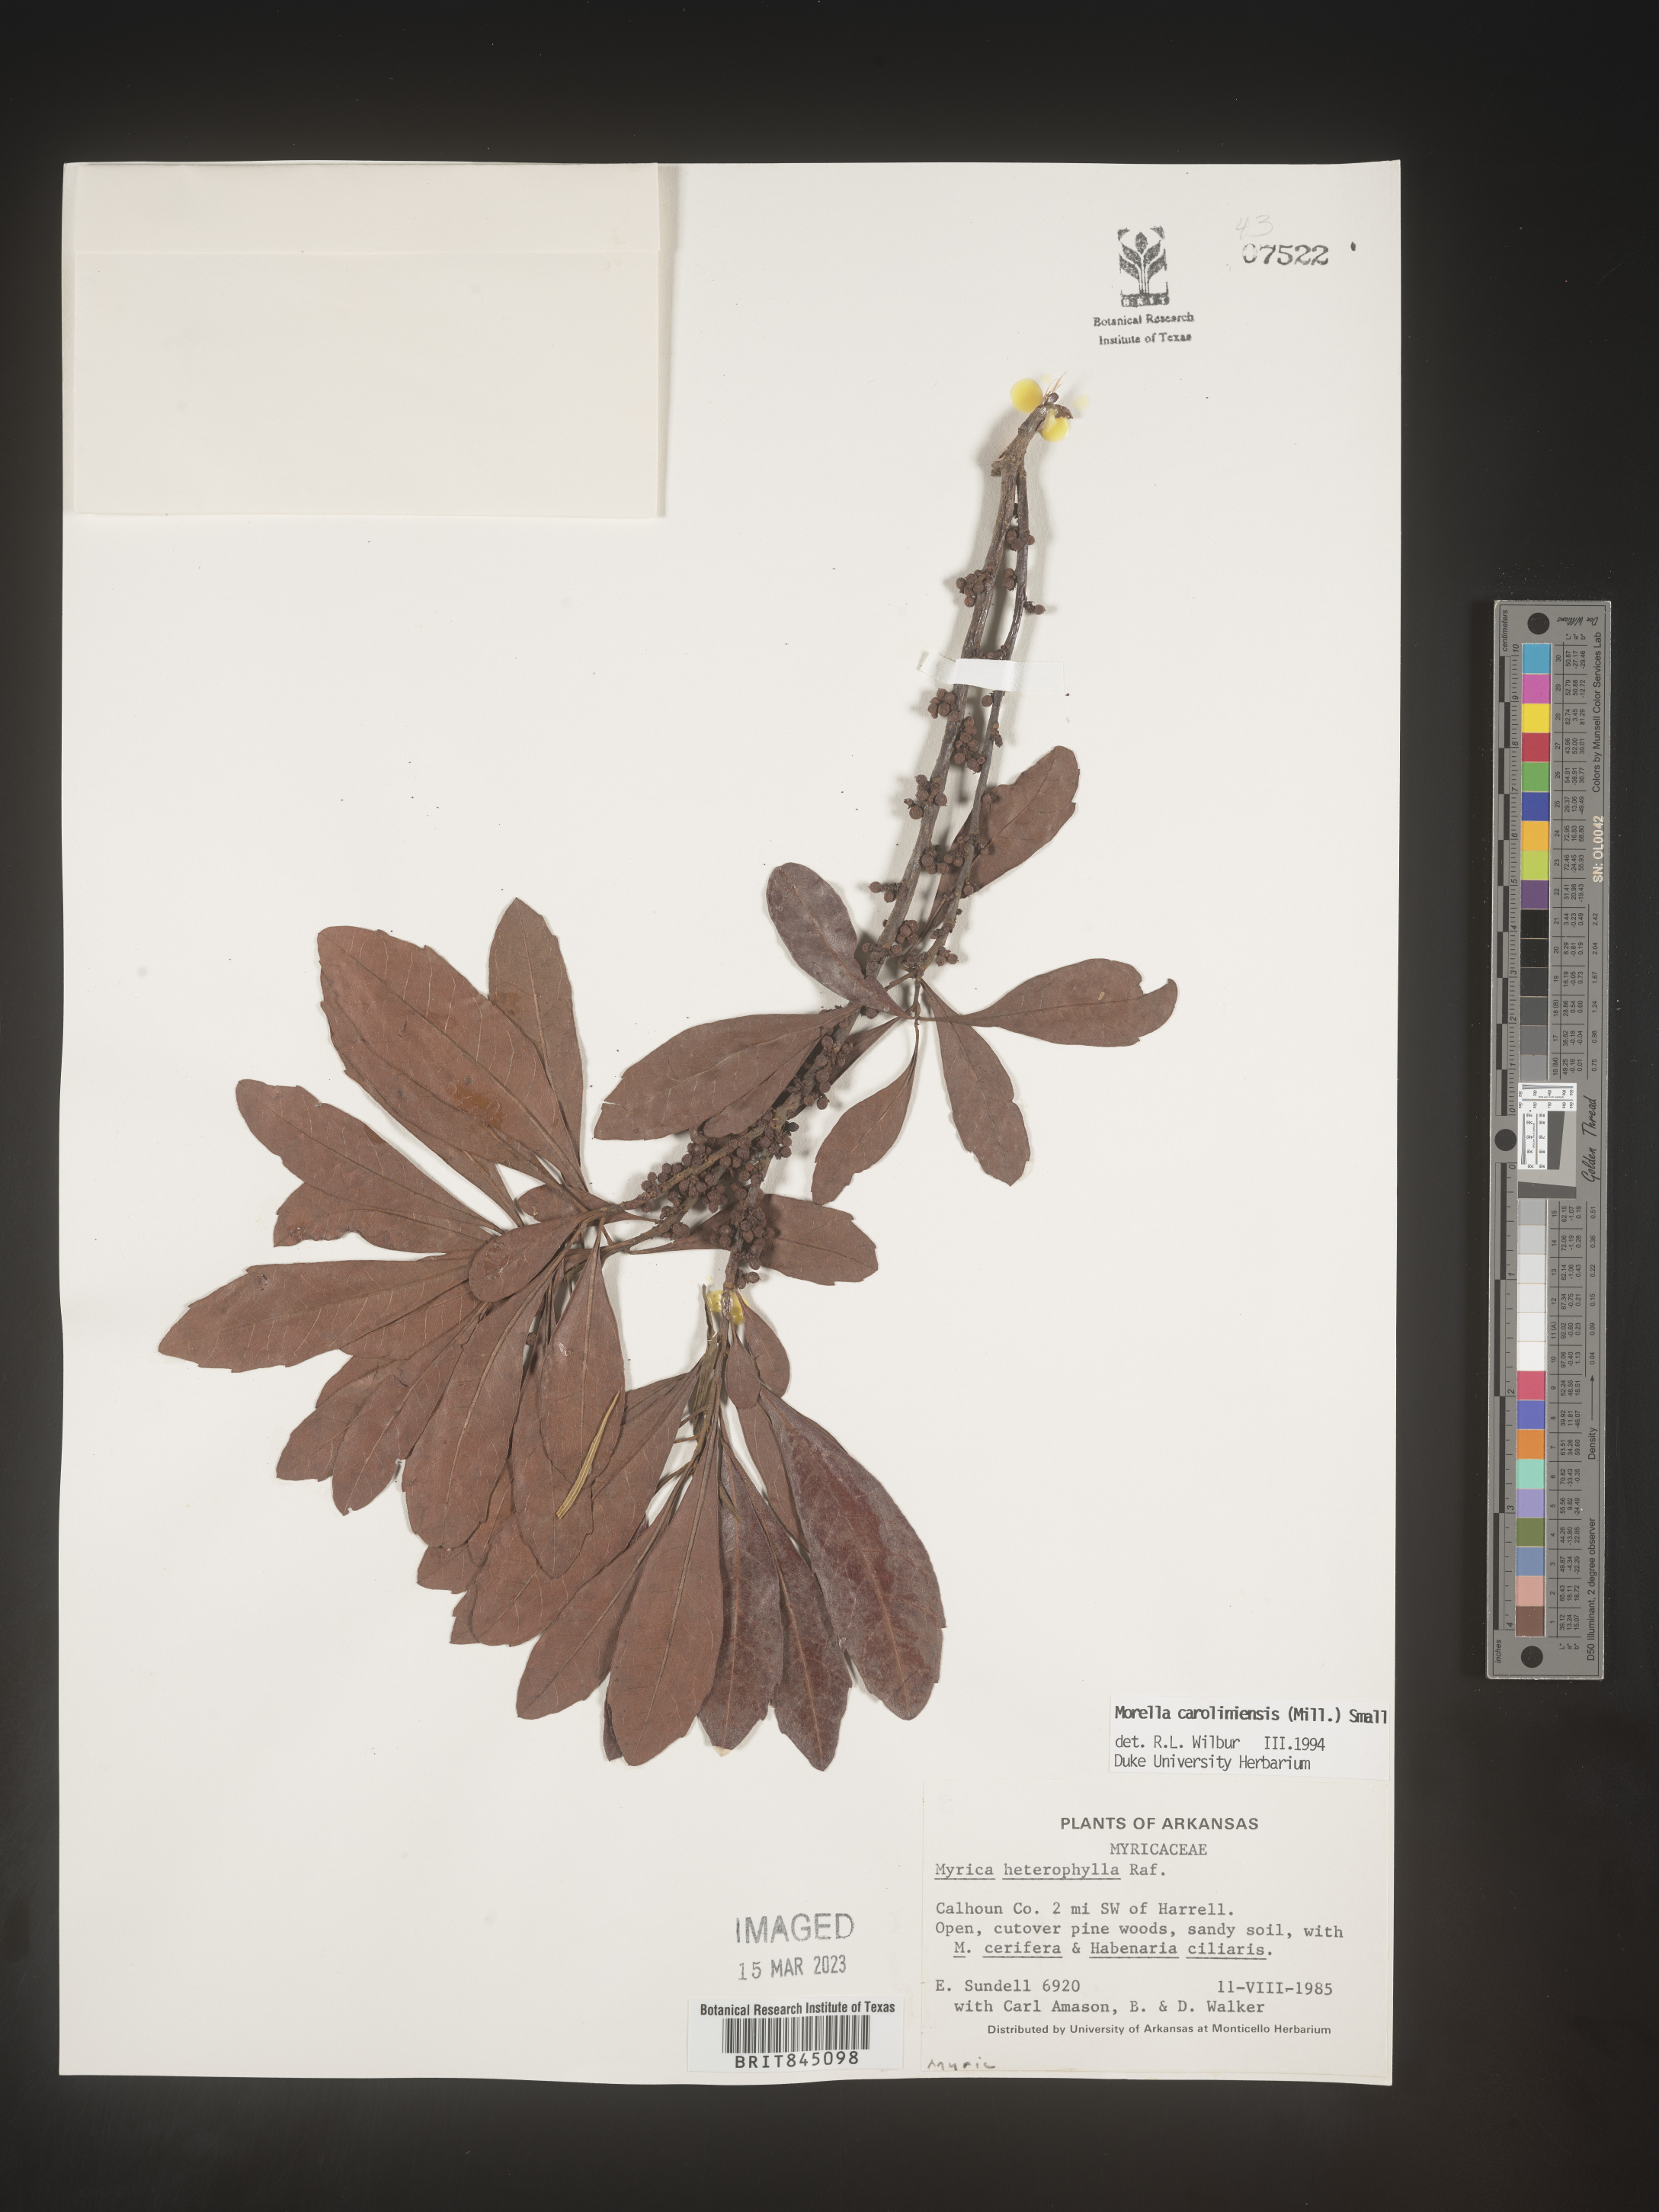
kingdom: Plantae
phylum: Tracheophyta
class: Magnoliopsida
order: Fagales
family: Myricaceae
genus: Morella
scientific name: Morella caroliniensis
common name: Evergreen bayberry
